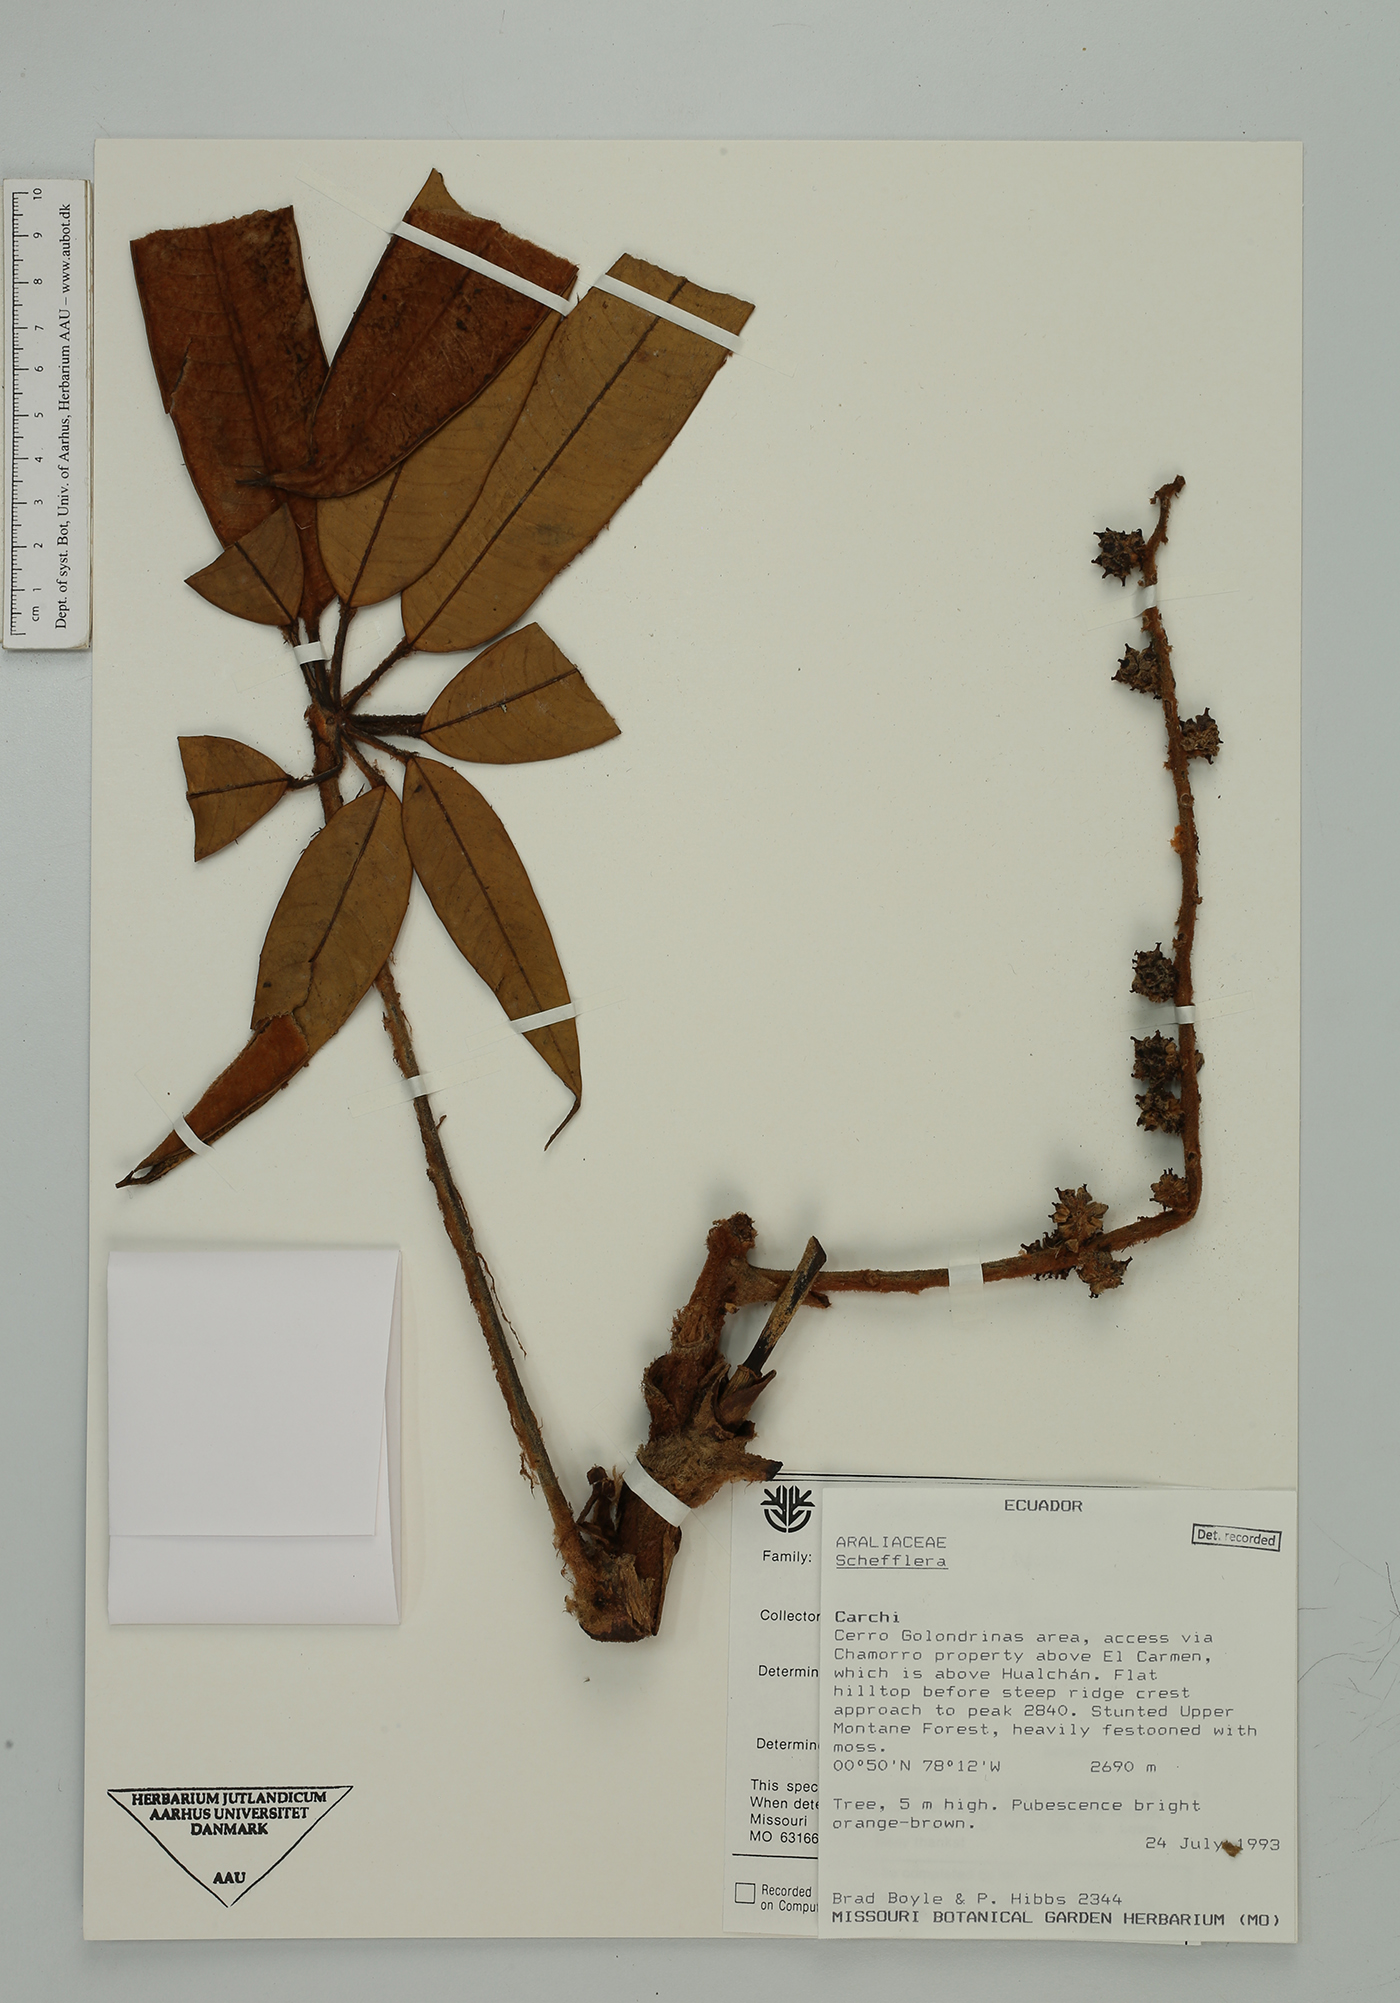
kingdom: Plantae
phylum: Tracheophyta
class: Magnoliopsida
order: Apiales
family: Araliaceae
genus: Sciodaphyllum
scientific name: Sciodaphyllum rufilanceolatum
